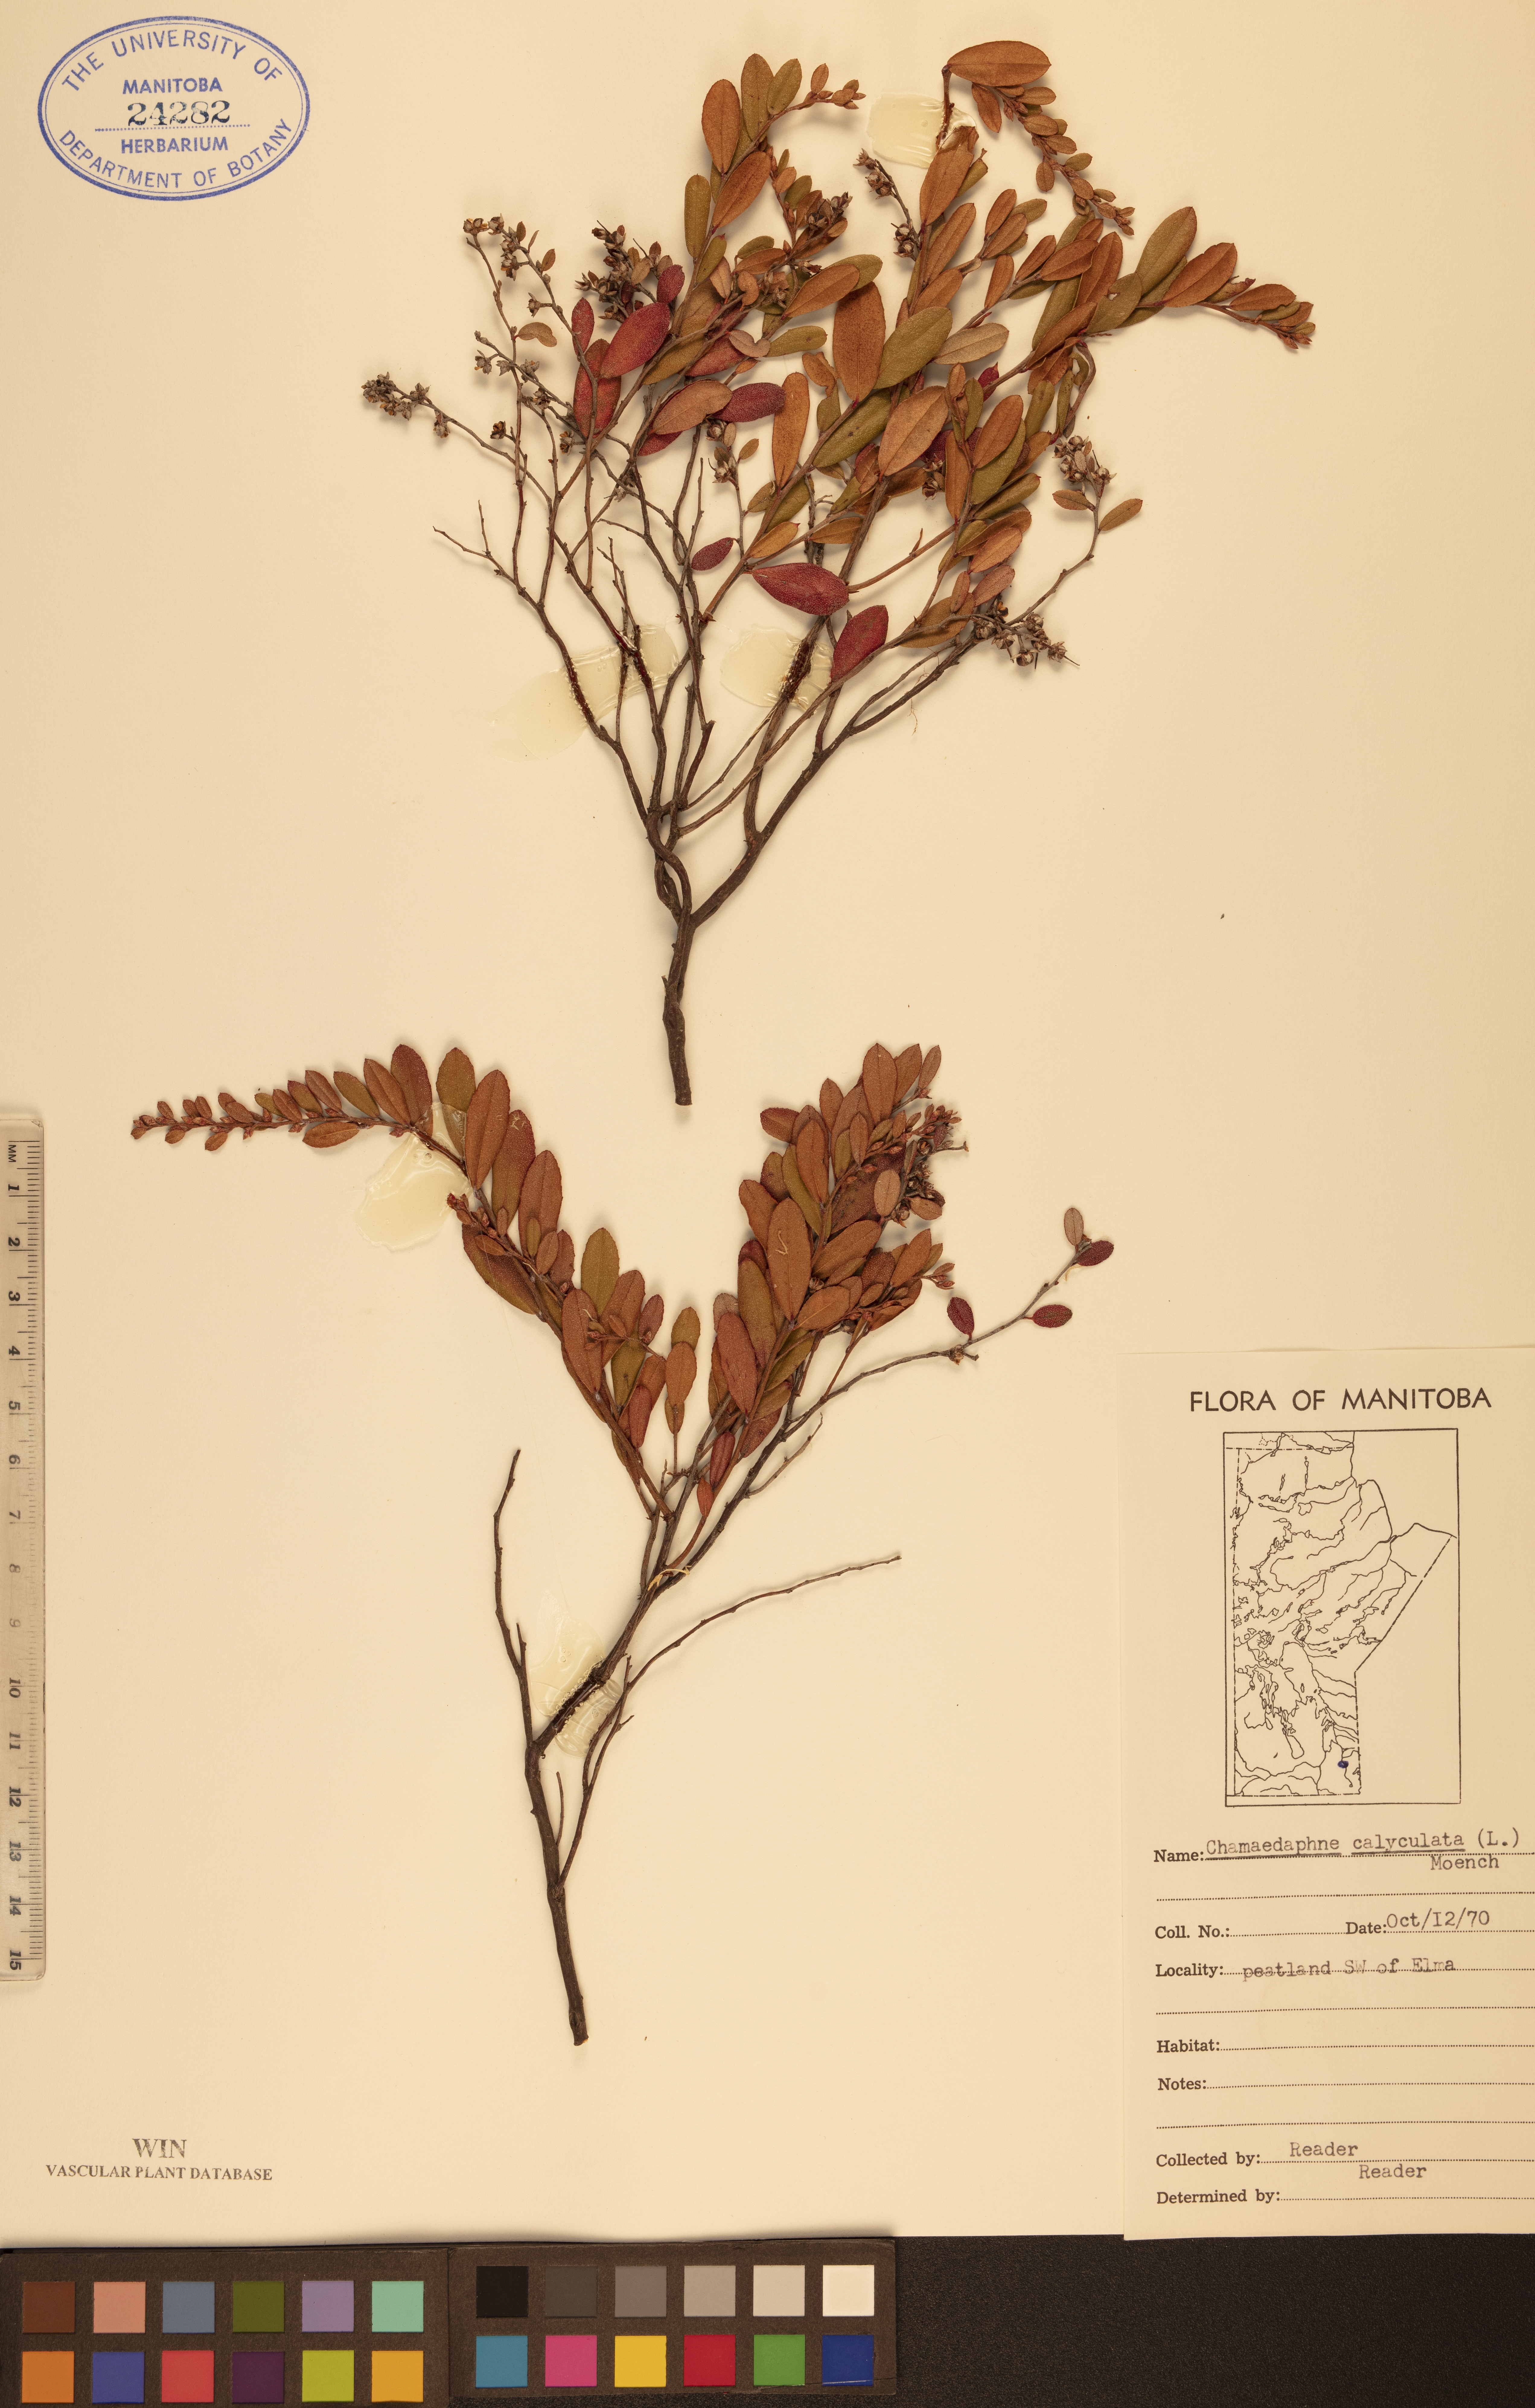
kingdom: Plantae
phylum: Tracheophyta
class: Magnoliopsida
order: Ericales
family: Ericaceae
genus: Chamaedaphne
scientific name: Chamaedaphne calyculata
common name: Leatherleaf
